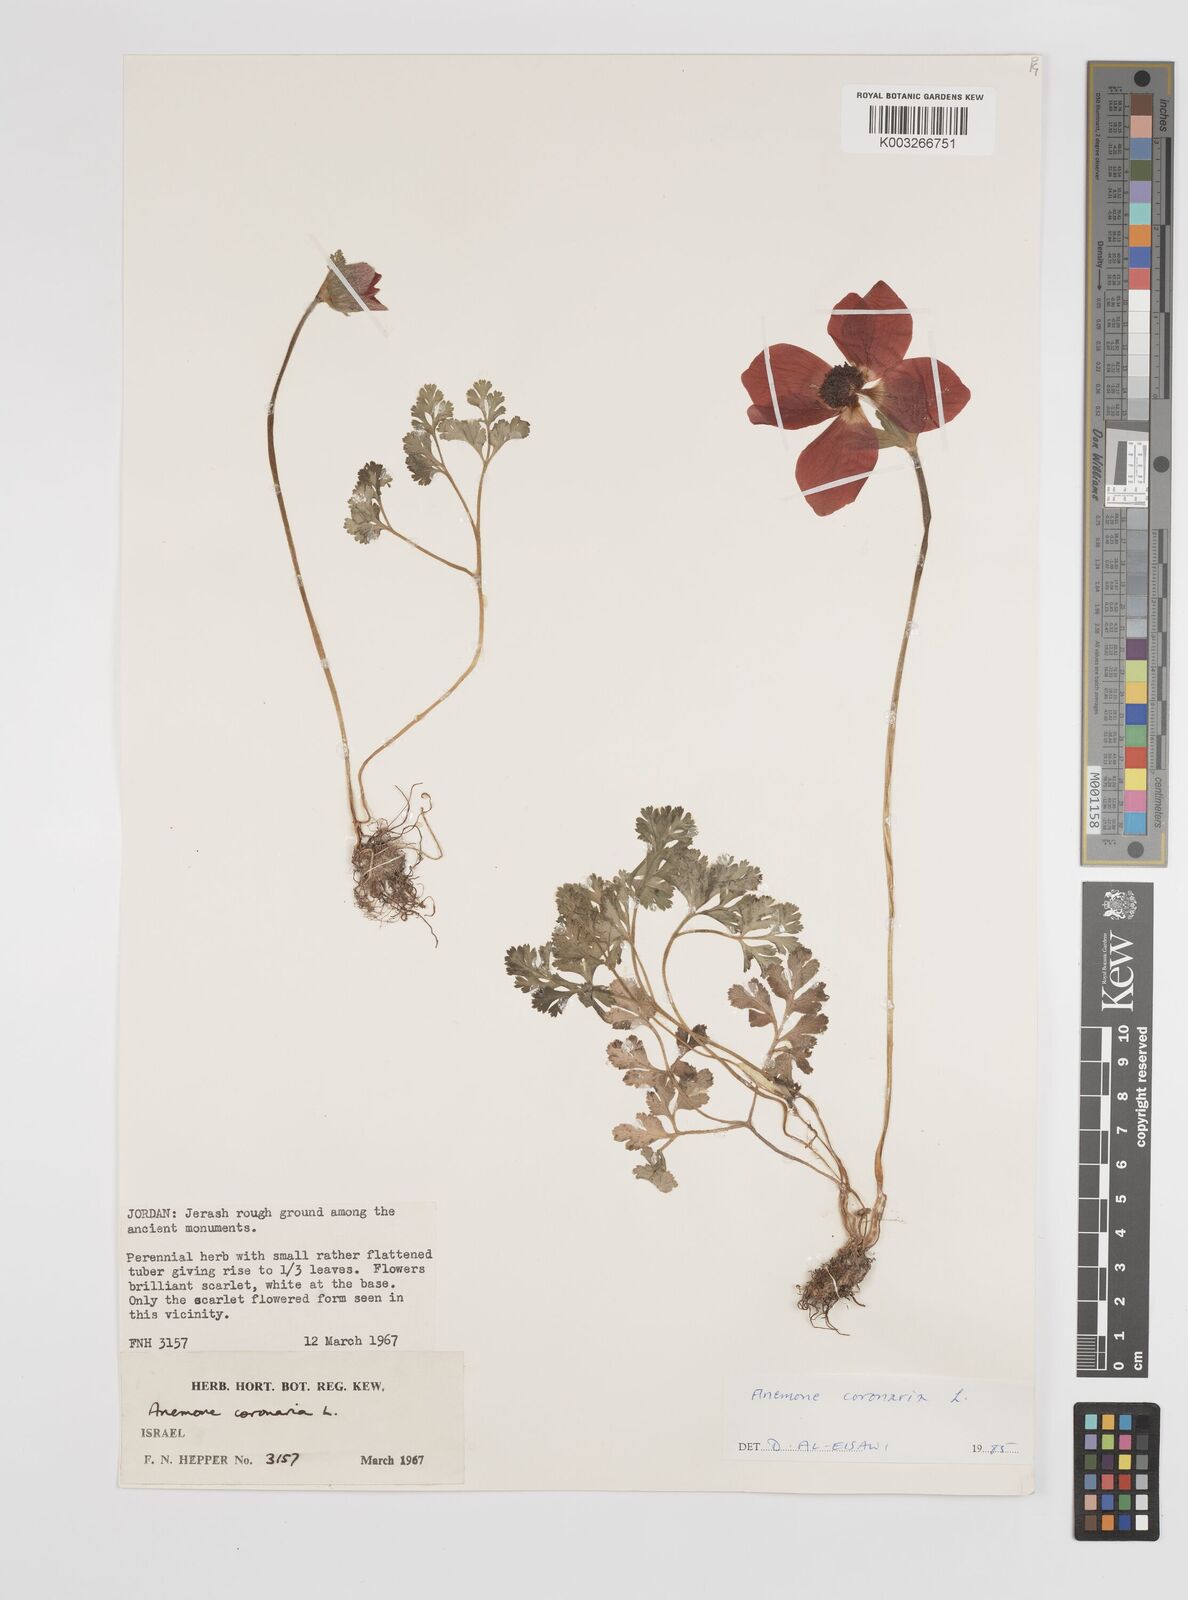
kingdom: Plantae
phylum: Tracheophyta
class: Magnoliopsida
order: Ranunculales
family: Ranunculaceae
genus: Anemone
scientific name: Anemone coronaria
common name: Poppy anemone
